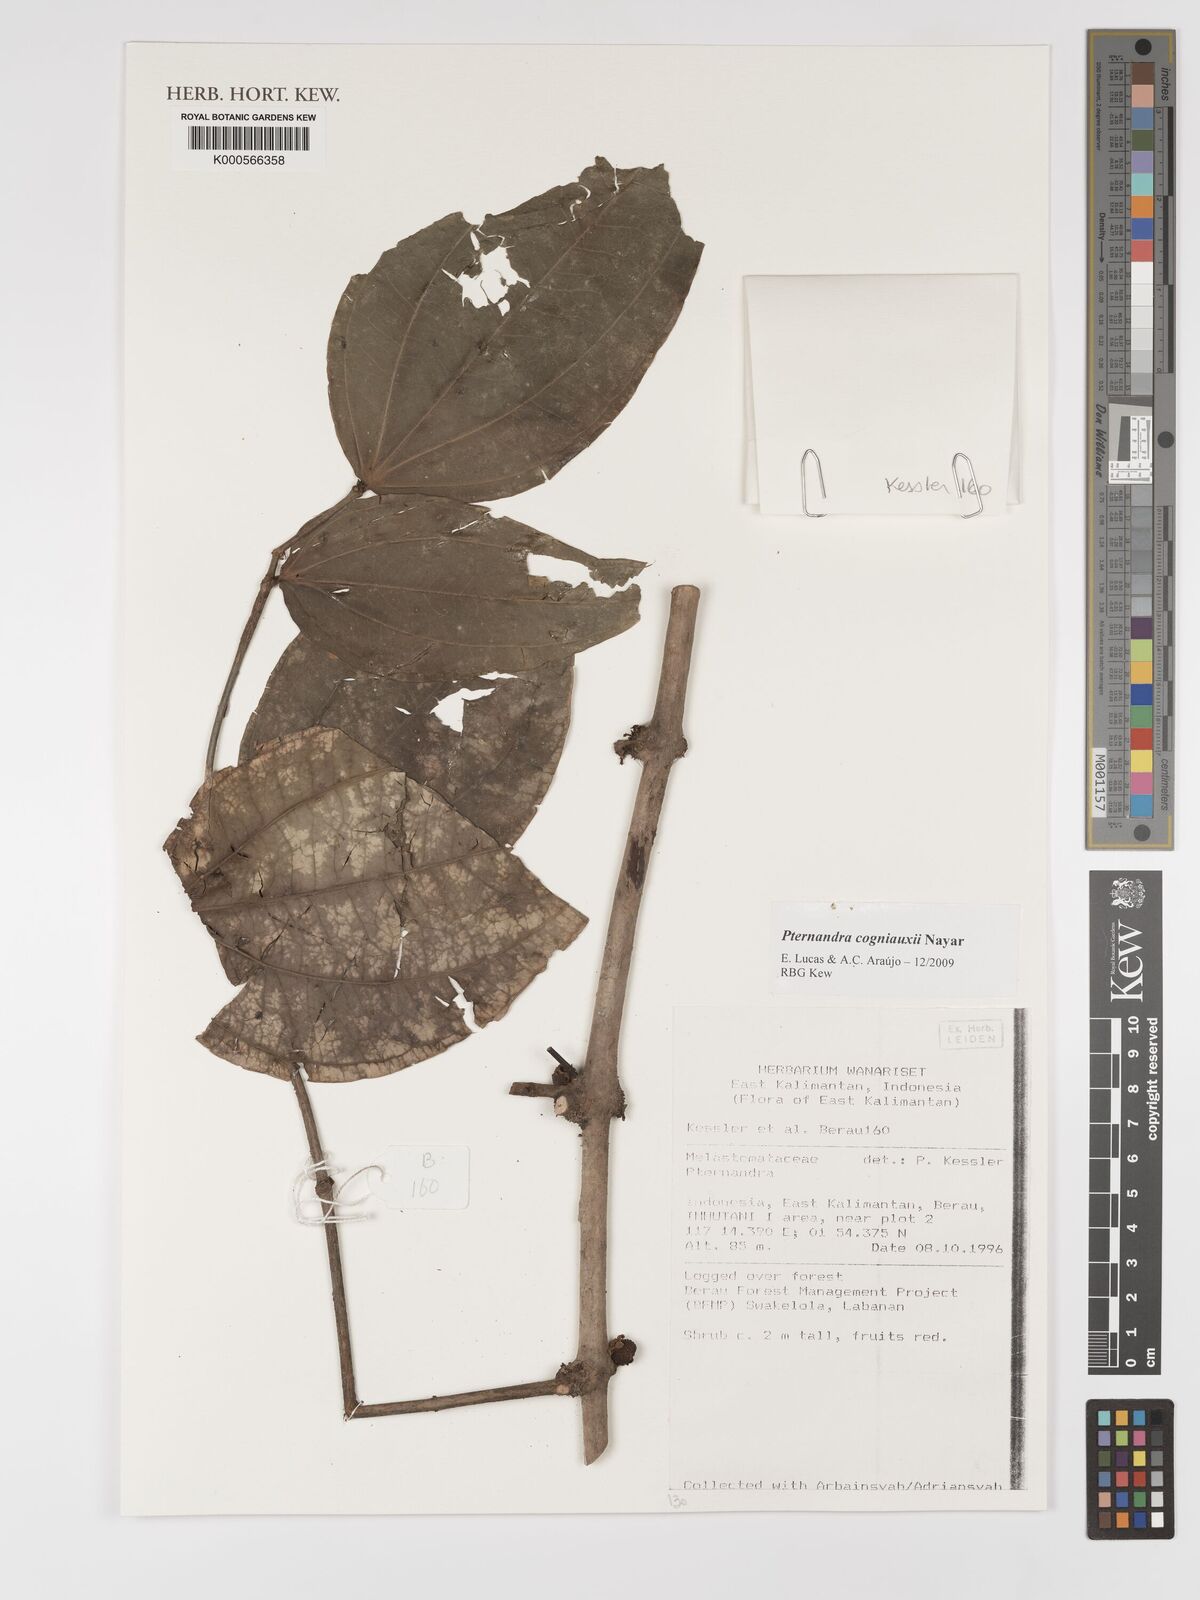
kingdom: Plantae
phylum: Tracheophyta
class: Magnoliopsida
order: Myrtales
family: Melastomataceae
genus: Pternandra
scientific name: Pternandra cogniauxii
